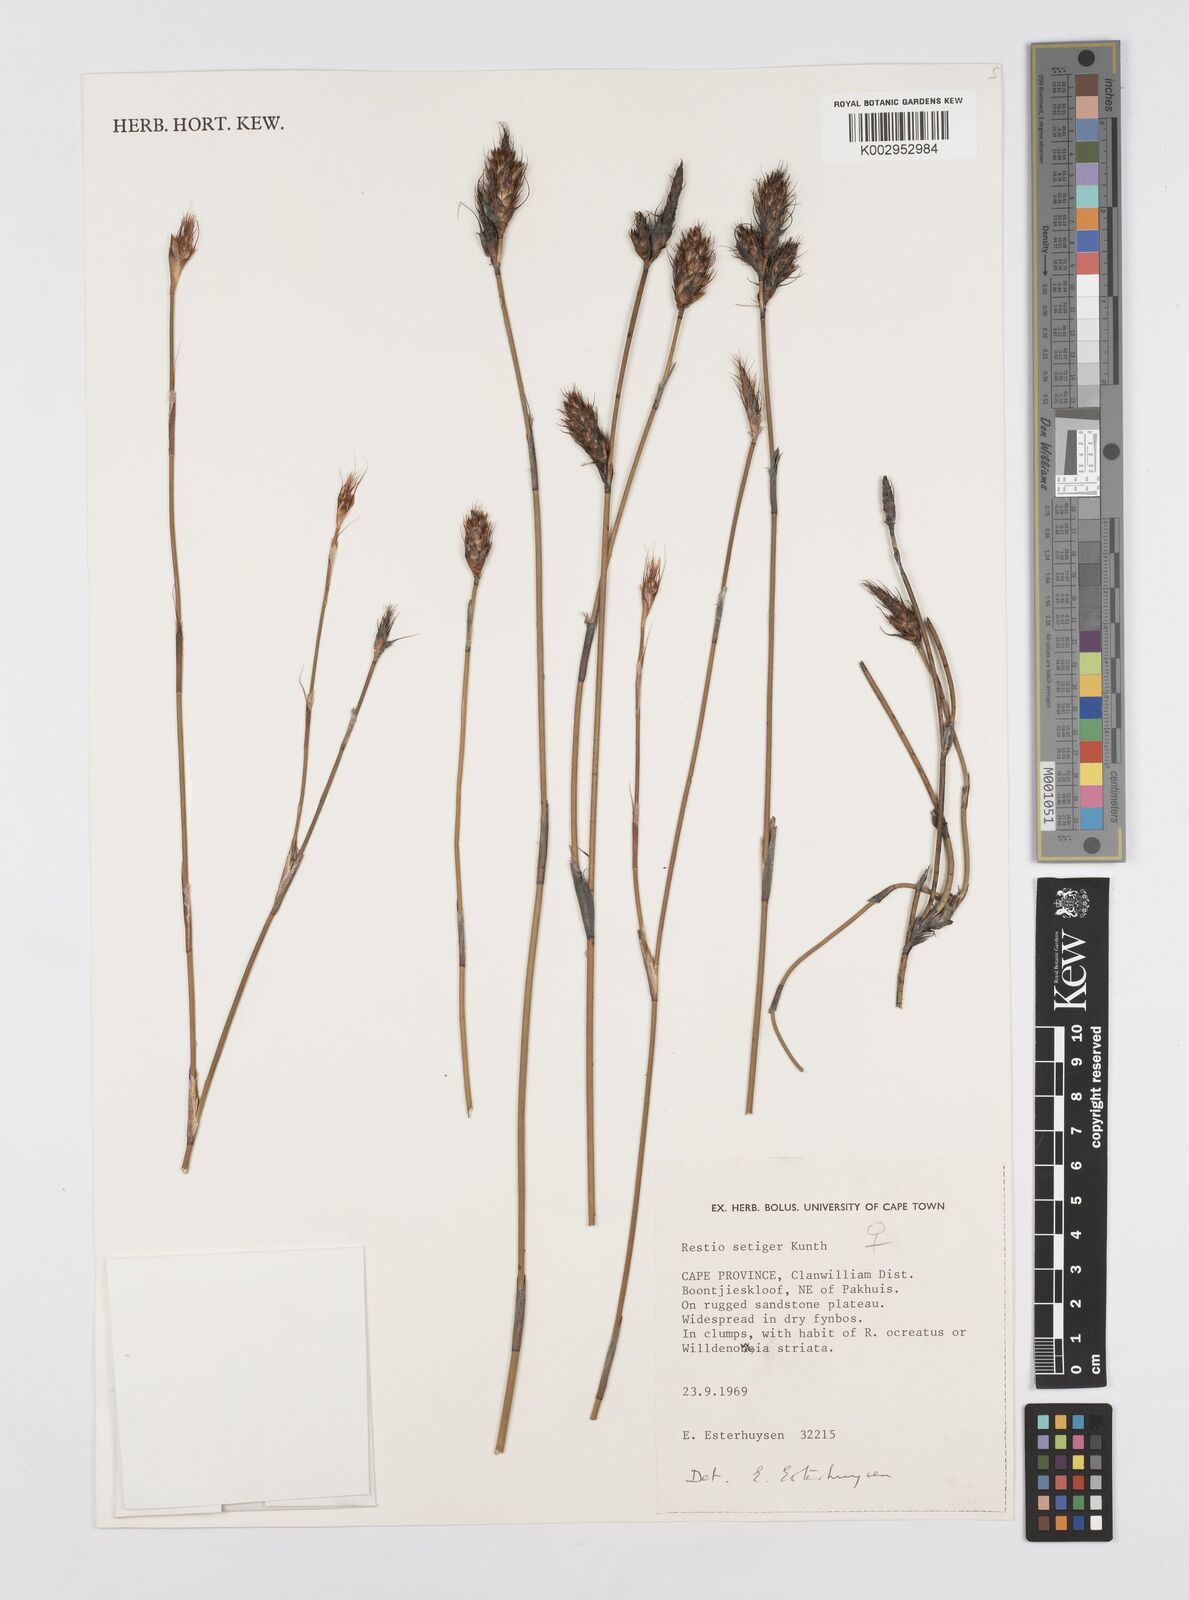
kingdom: Plantae
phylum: Tracheophyta
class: Liliopsida
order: Poales
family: Restionaceae
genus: Restio
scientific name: Restio setiger
